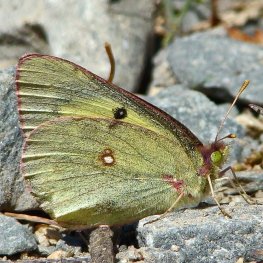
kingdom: Animalia
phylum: Arthropoda
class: Insecta
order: Lepidoptera
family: Pieridae
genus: Colias
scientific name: Colias eurytheme
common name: Orange Sulphur
